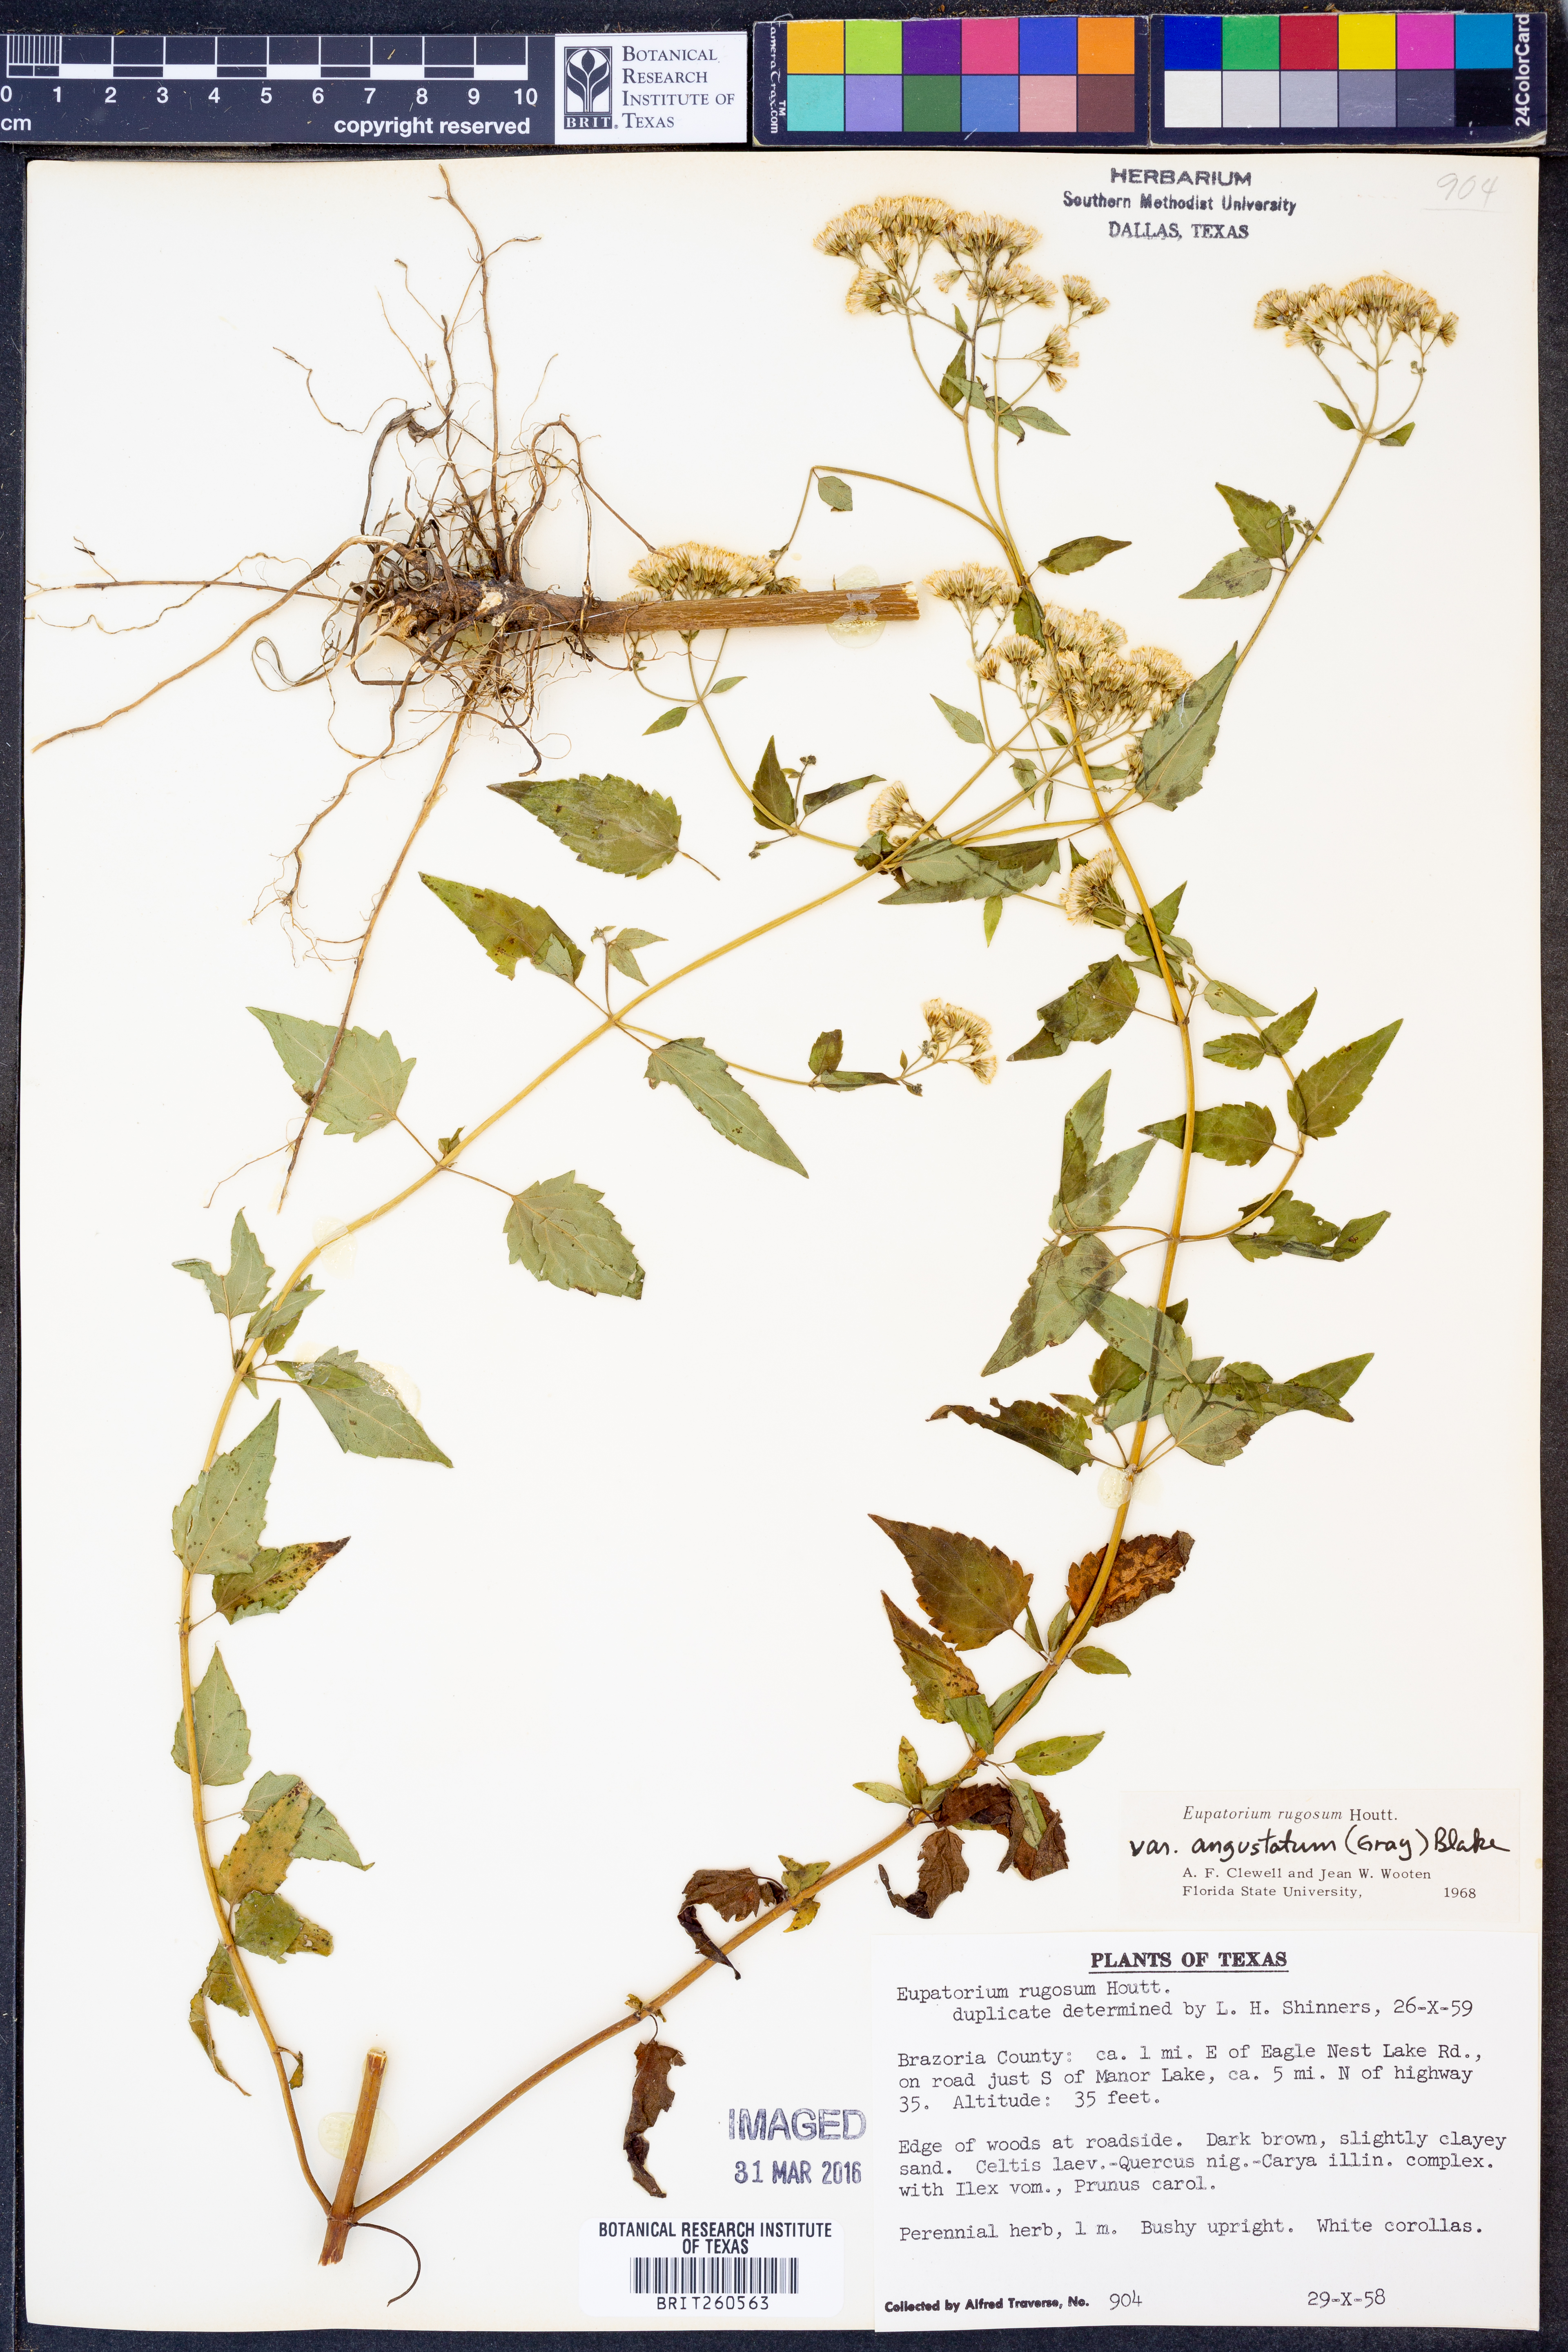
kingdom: Plantae
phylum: Tracheophyta
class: Magnoliopsida
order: Asterales
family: Asteraceae
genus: Ageratina
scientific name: Ageratina altissima
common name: White snakeroot
